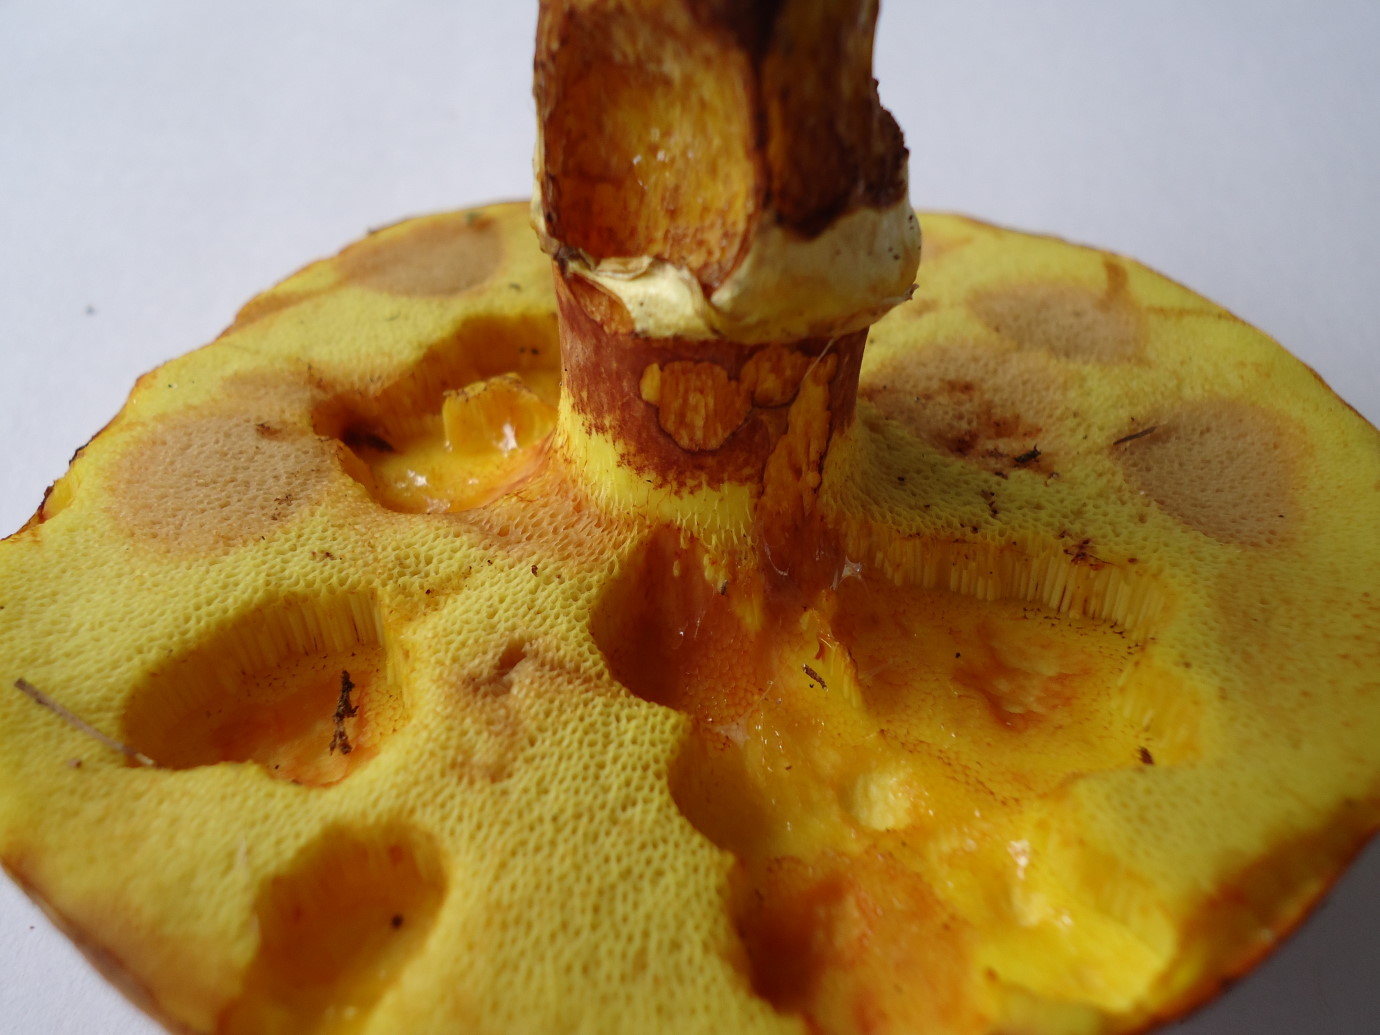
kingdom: Fungi
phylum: Basidiomycota
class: Agaricomycetes
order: Boletales
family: Suillaceae
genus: Suillus
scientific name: Suillus grevillei
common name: lærke-slimrørhat
